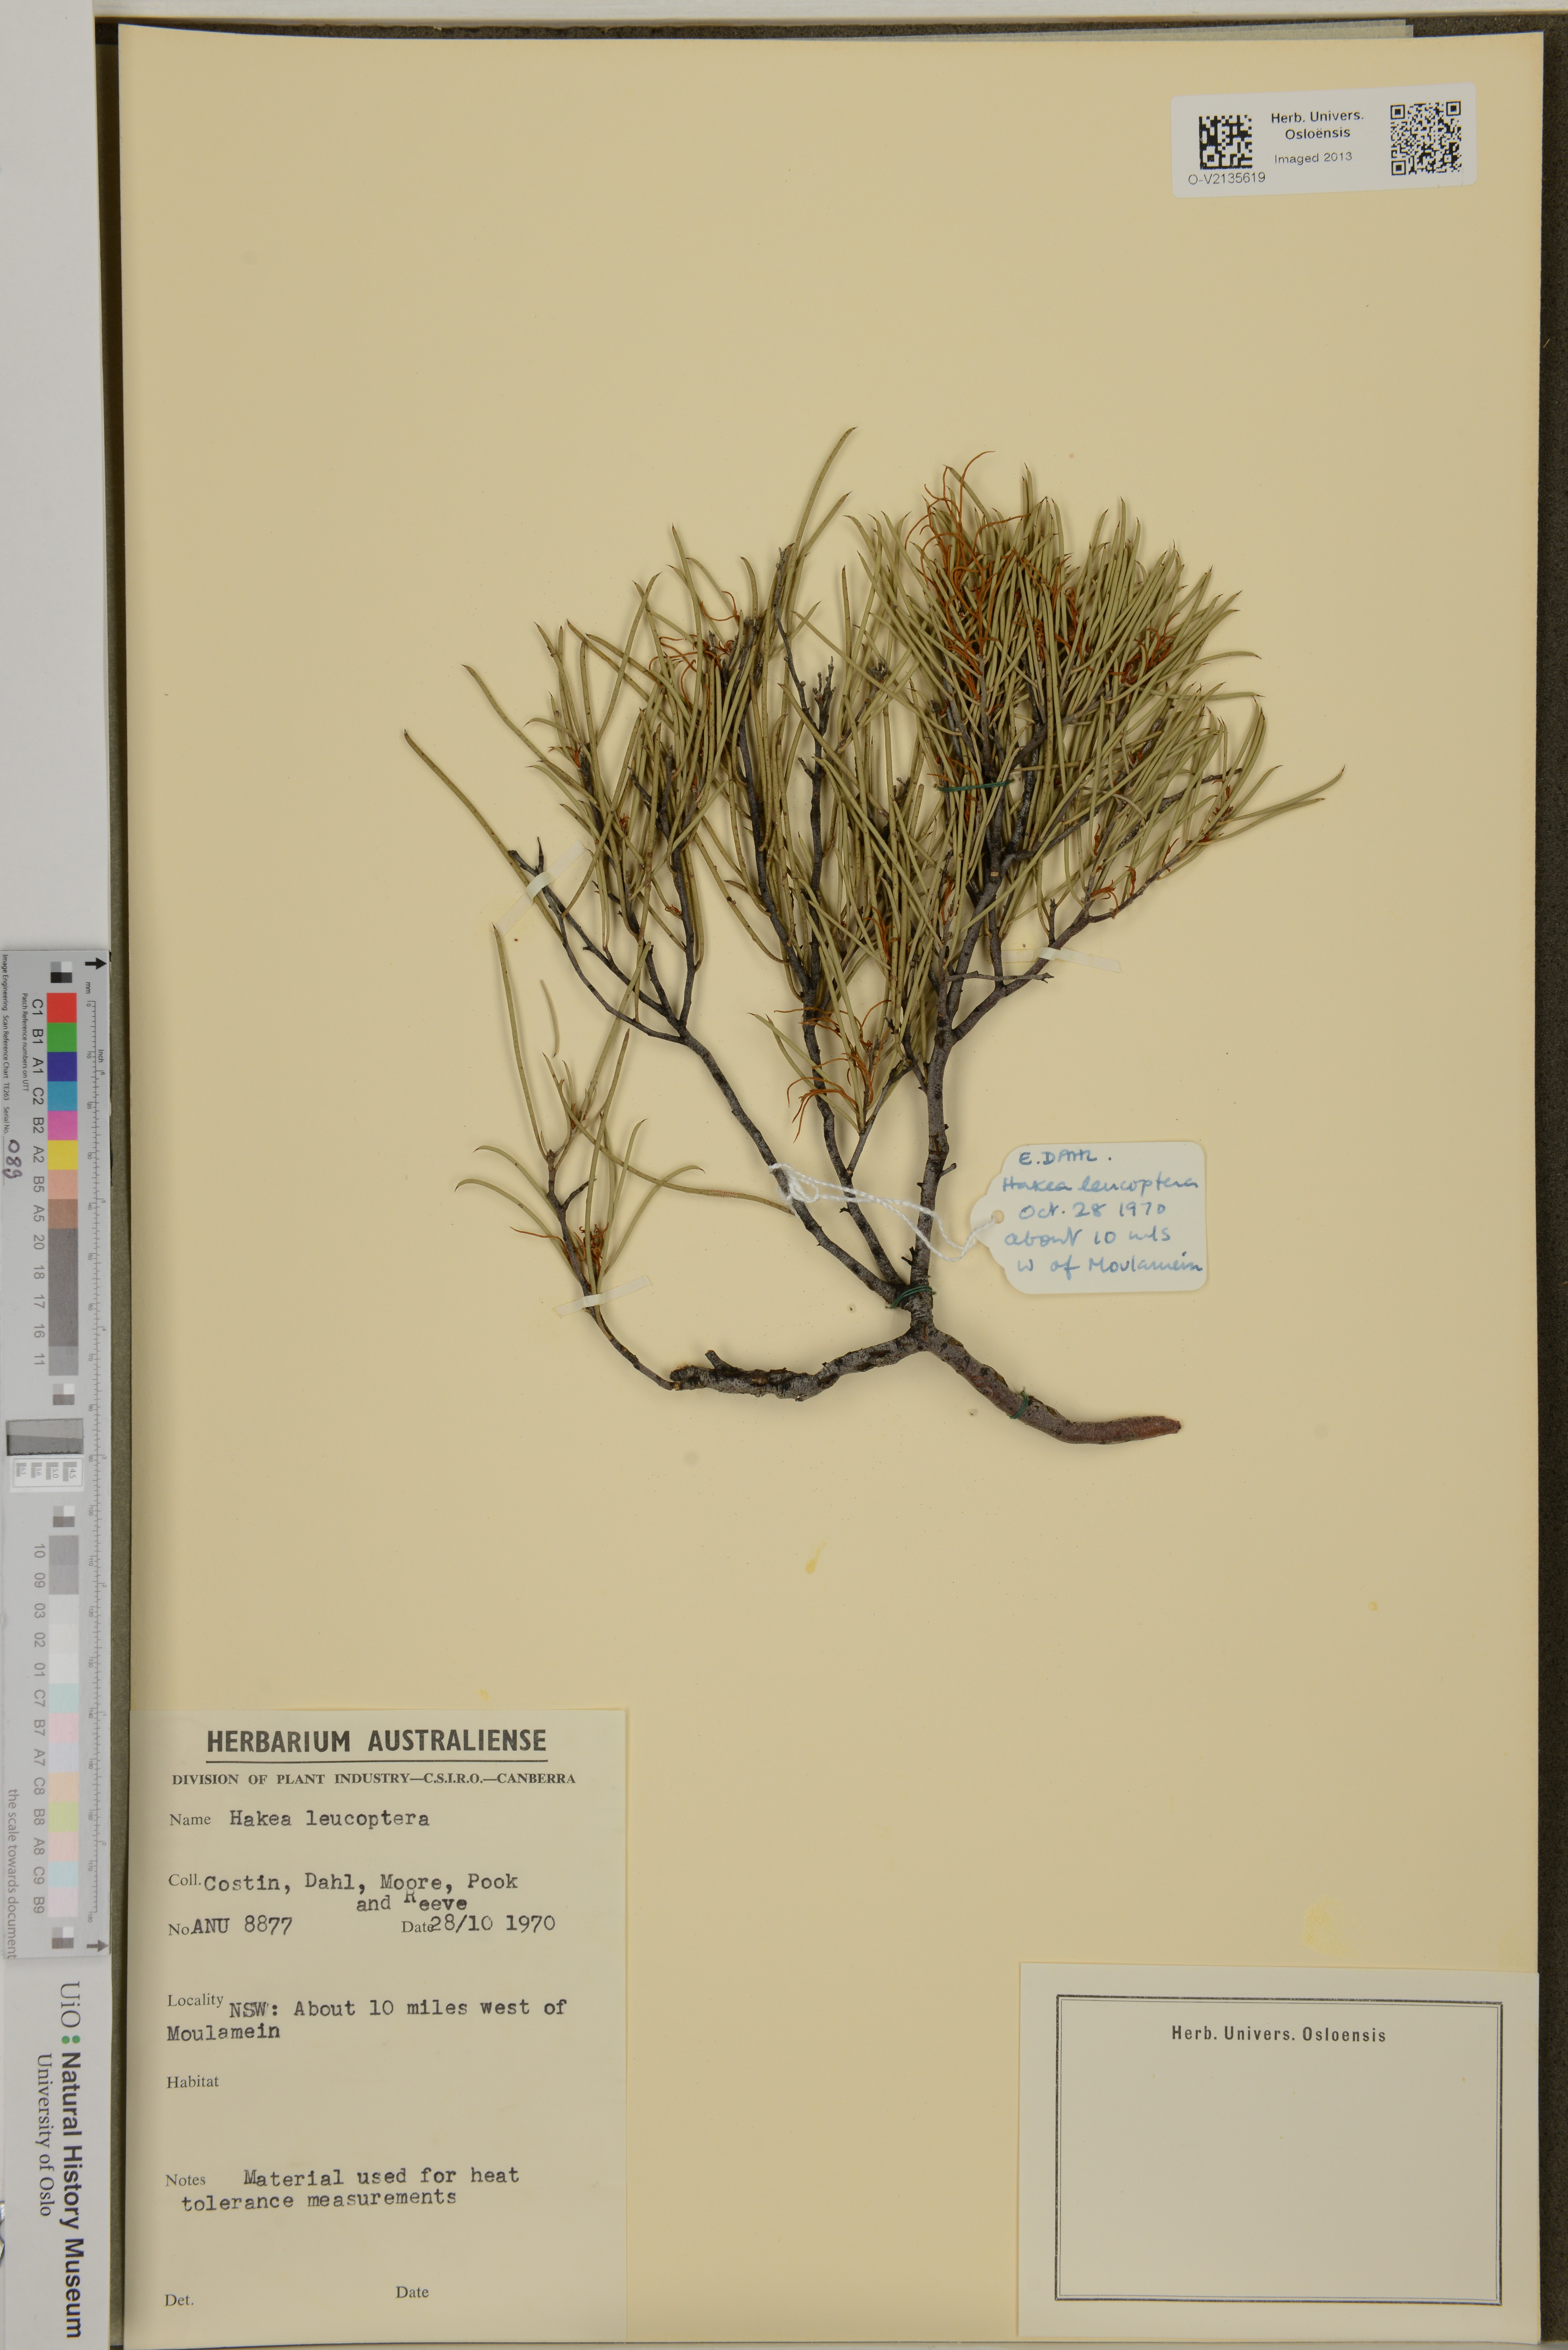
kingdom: Plantae
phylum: Tracheophyta
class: Magnoliopsida
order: Proteales
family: Proteaceae
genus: Hakea
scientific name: Hakea leucoptera
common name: Pinbush
